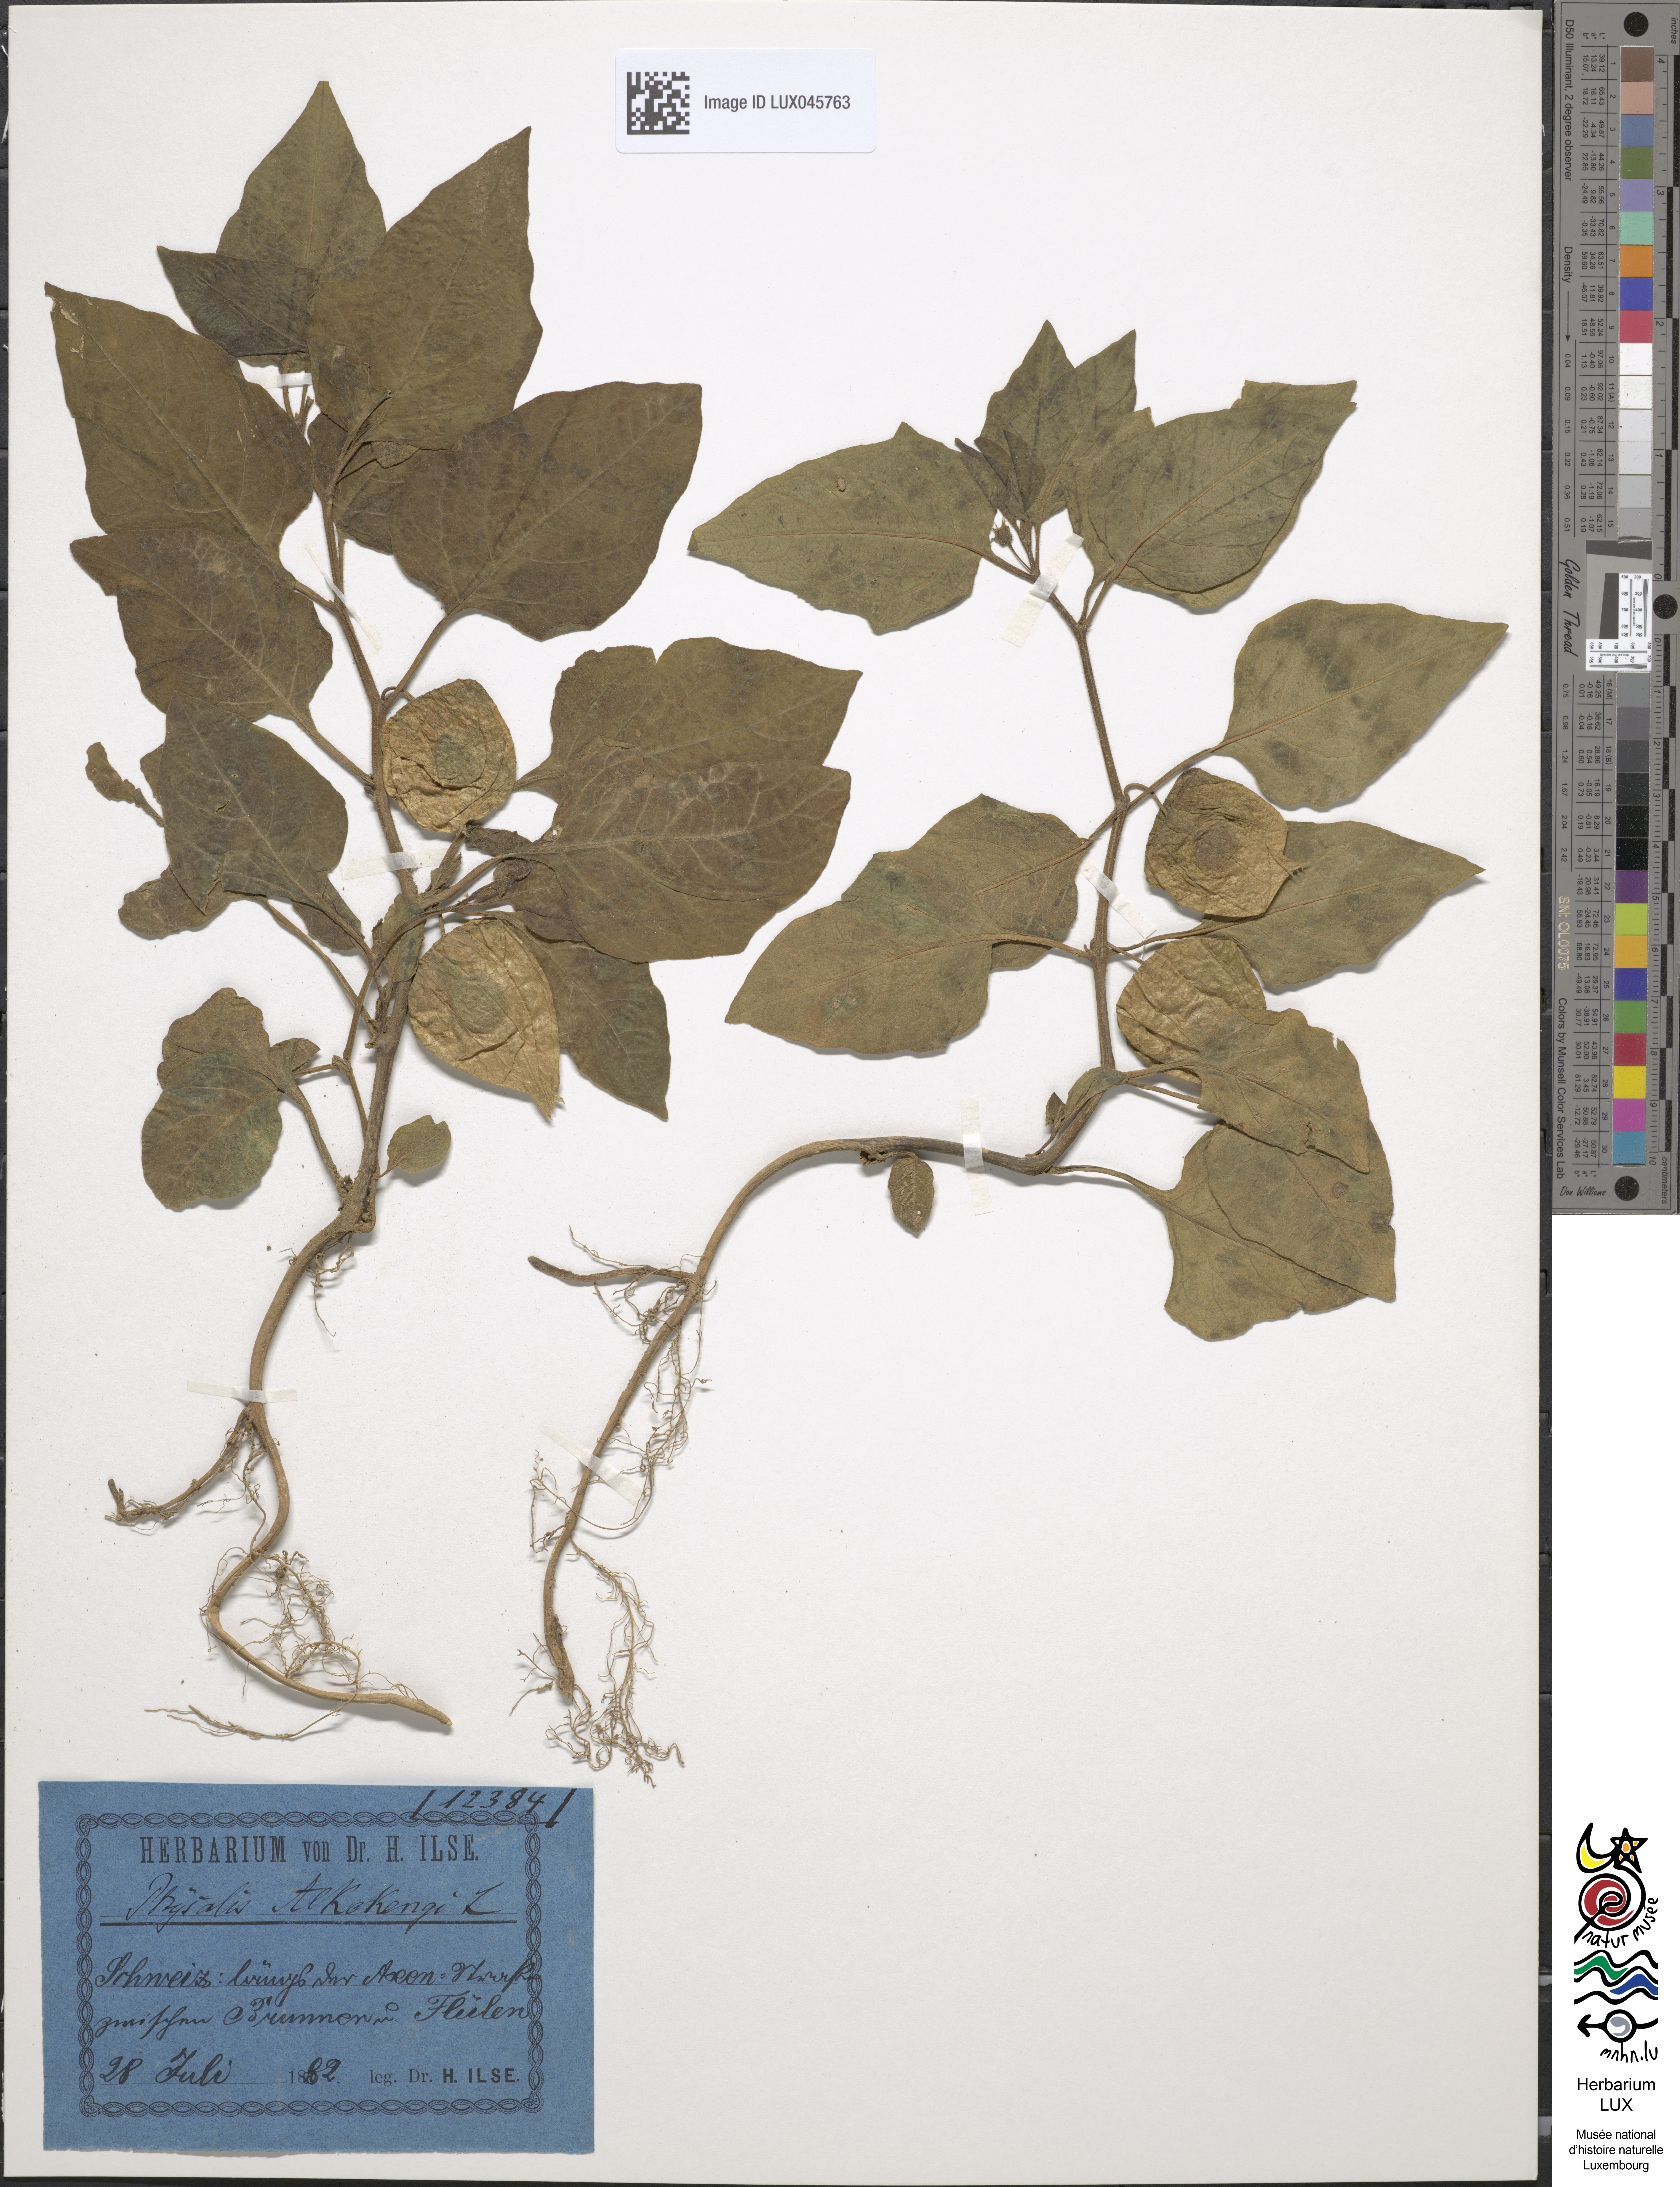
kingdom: Plantae
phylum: Tracheophyta
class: Magnoliopsida
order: Solanales
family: Solanaceae
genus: Alkekengi
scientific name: Alkekengi officinarum
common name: Japanese-lantern
